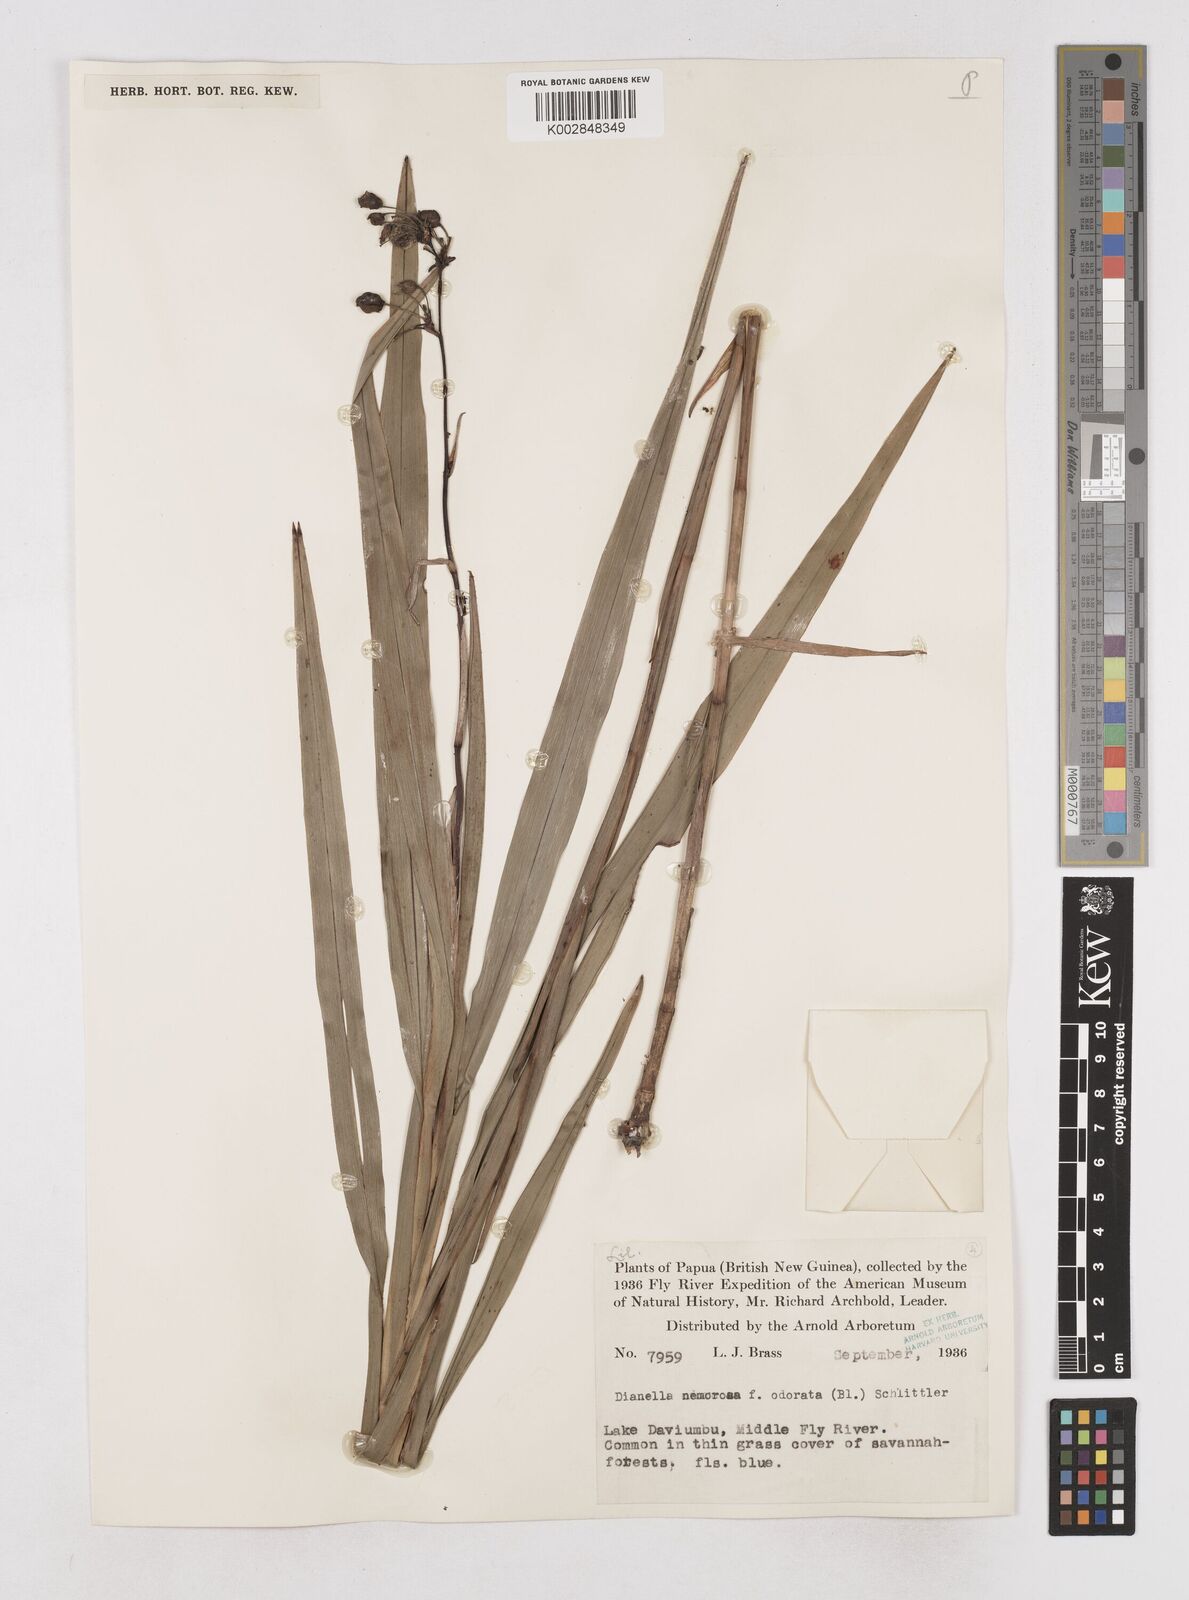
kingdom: Plantae
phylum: Tracheophyta
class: Liliopsida
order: Asparagales
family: Asphodelaceae
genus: Dianella
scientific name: Dianella ensifolia
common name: New zealand lilyplant
